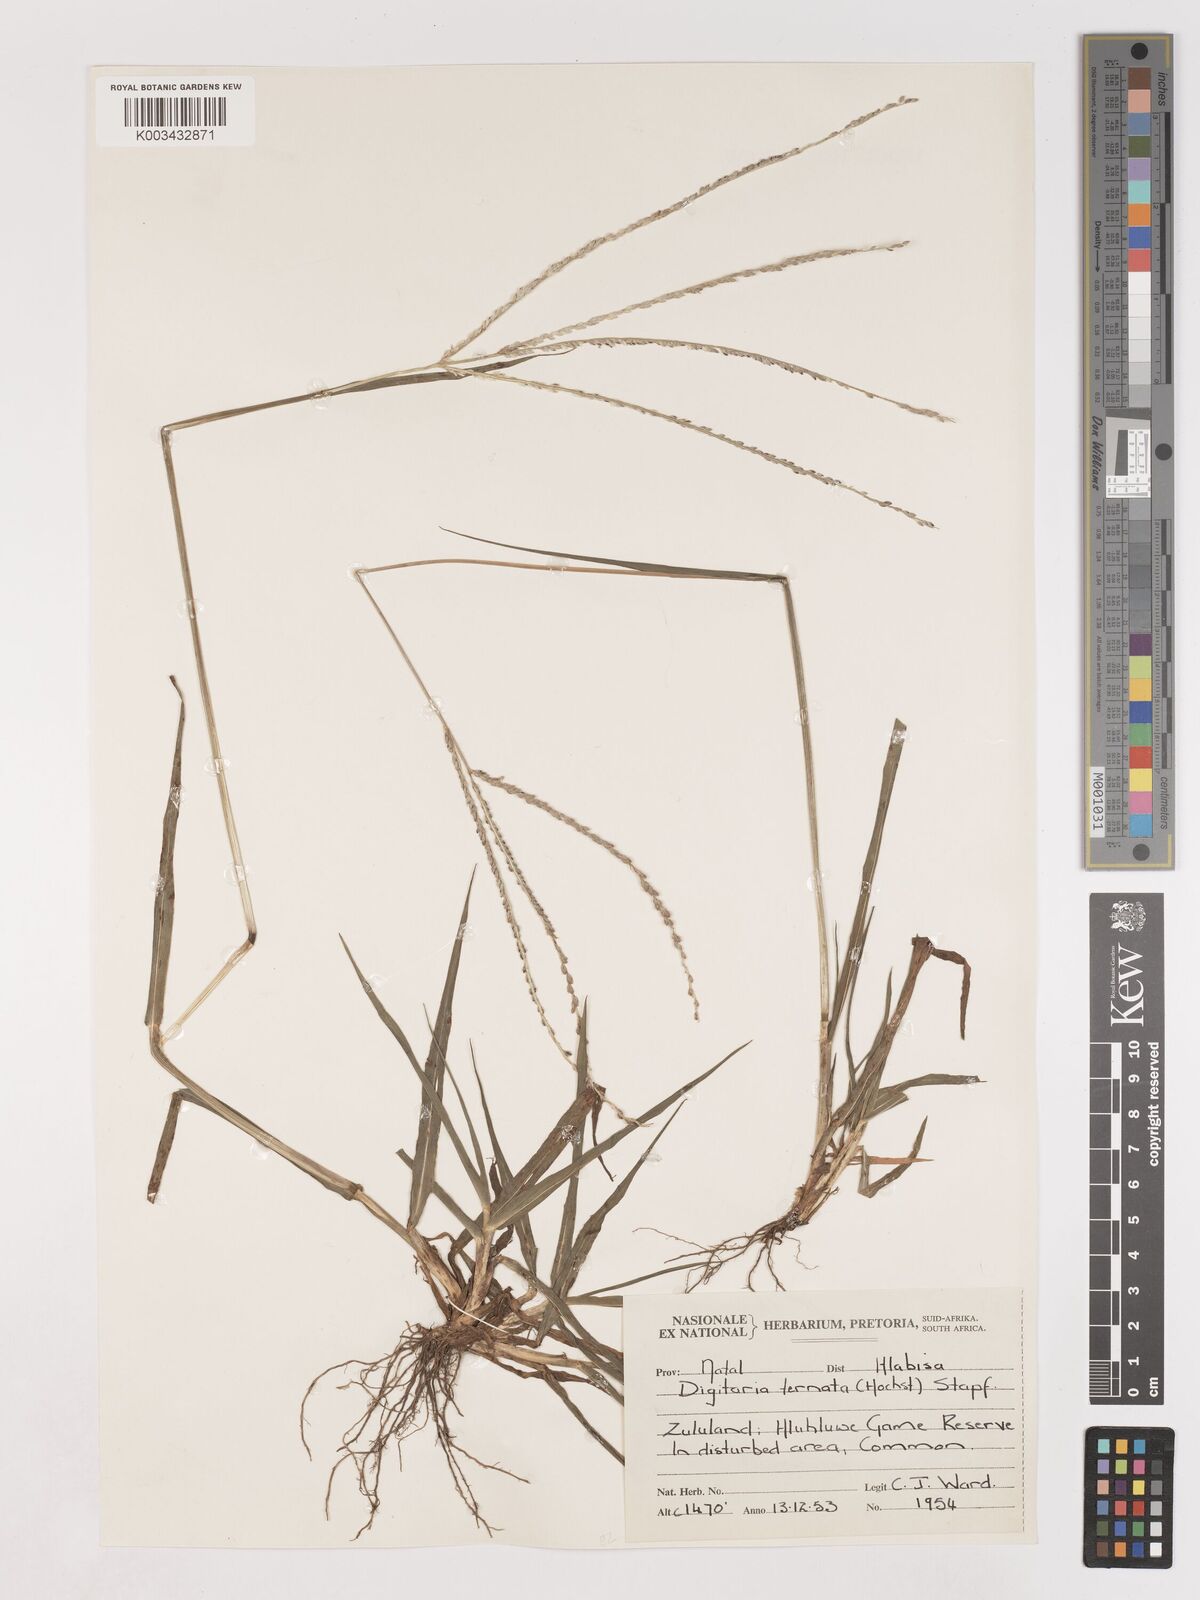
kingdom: Plantae
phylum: Tracheophyta
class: Liliopsida
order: Poales
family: Poaceae
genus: Digitaria
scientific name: Digitaria ternata
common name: Blackseed crabgrass
